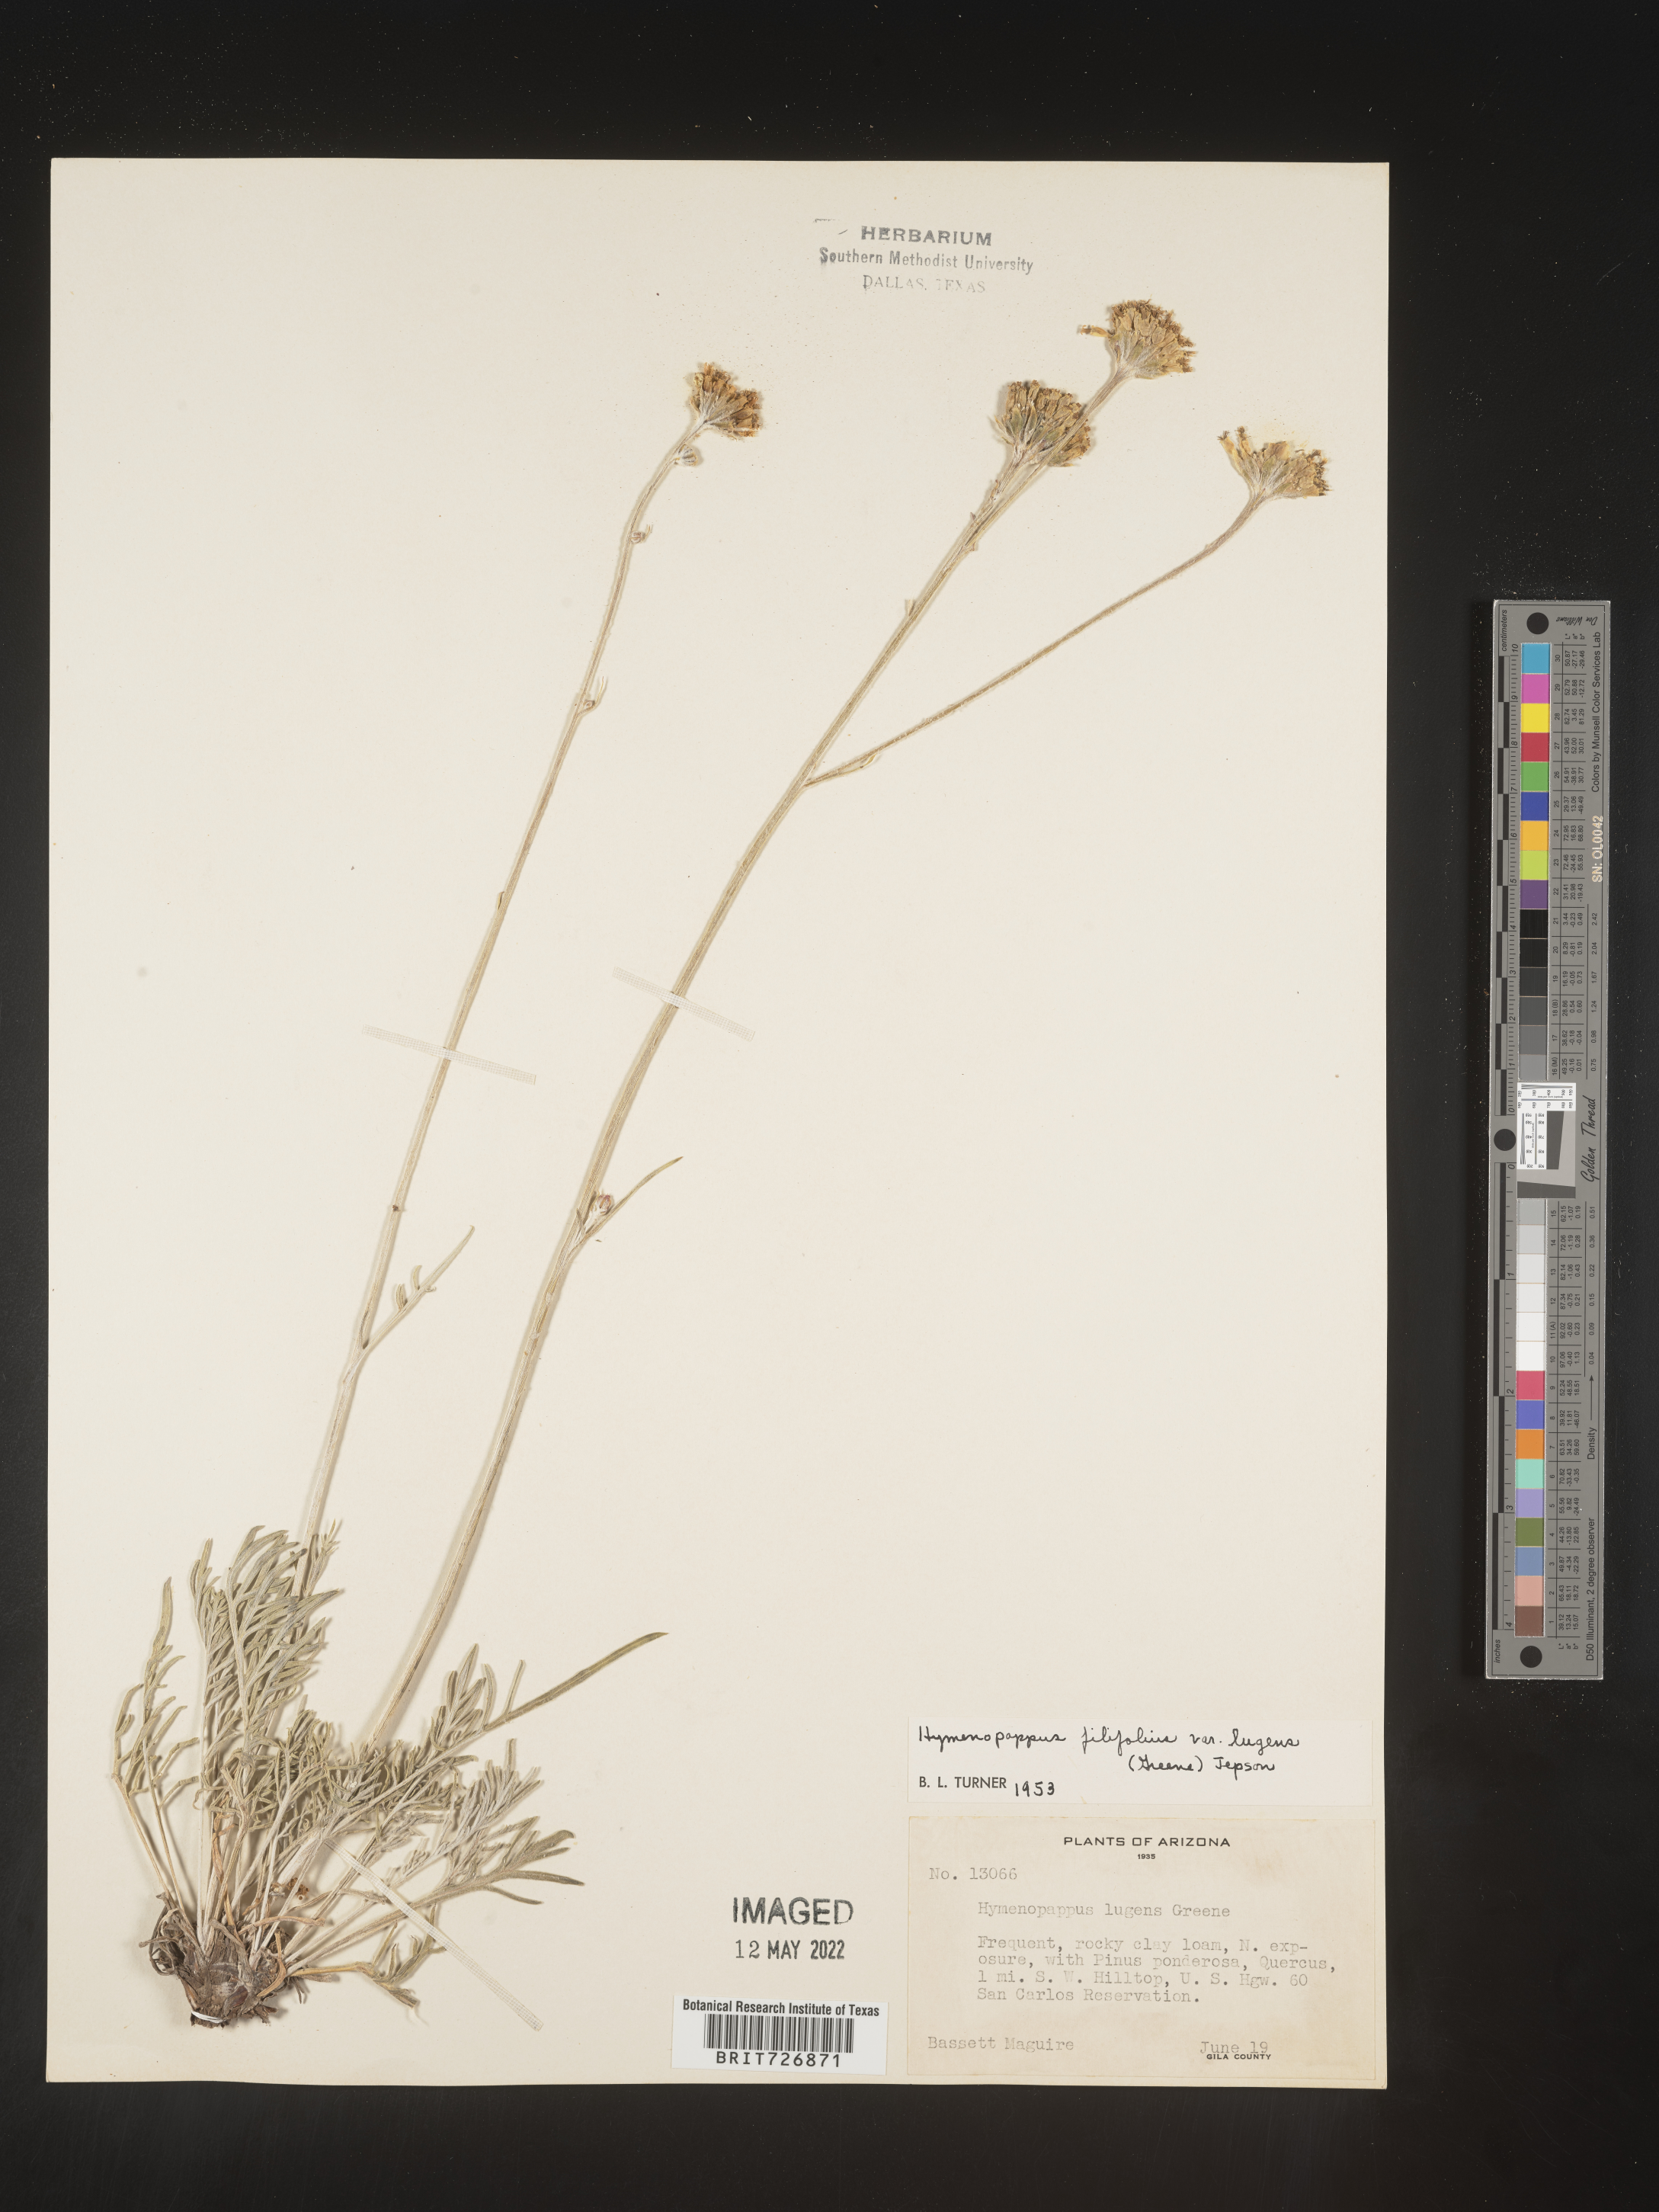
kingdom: Plantae
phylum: Tracheophyta
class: Magnoliopsida
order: Asterales
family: Asteraceae
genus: Hymenopappus
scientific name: Hymenopappus filifolius
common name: Columbia cutleaf
